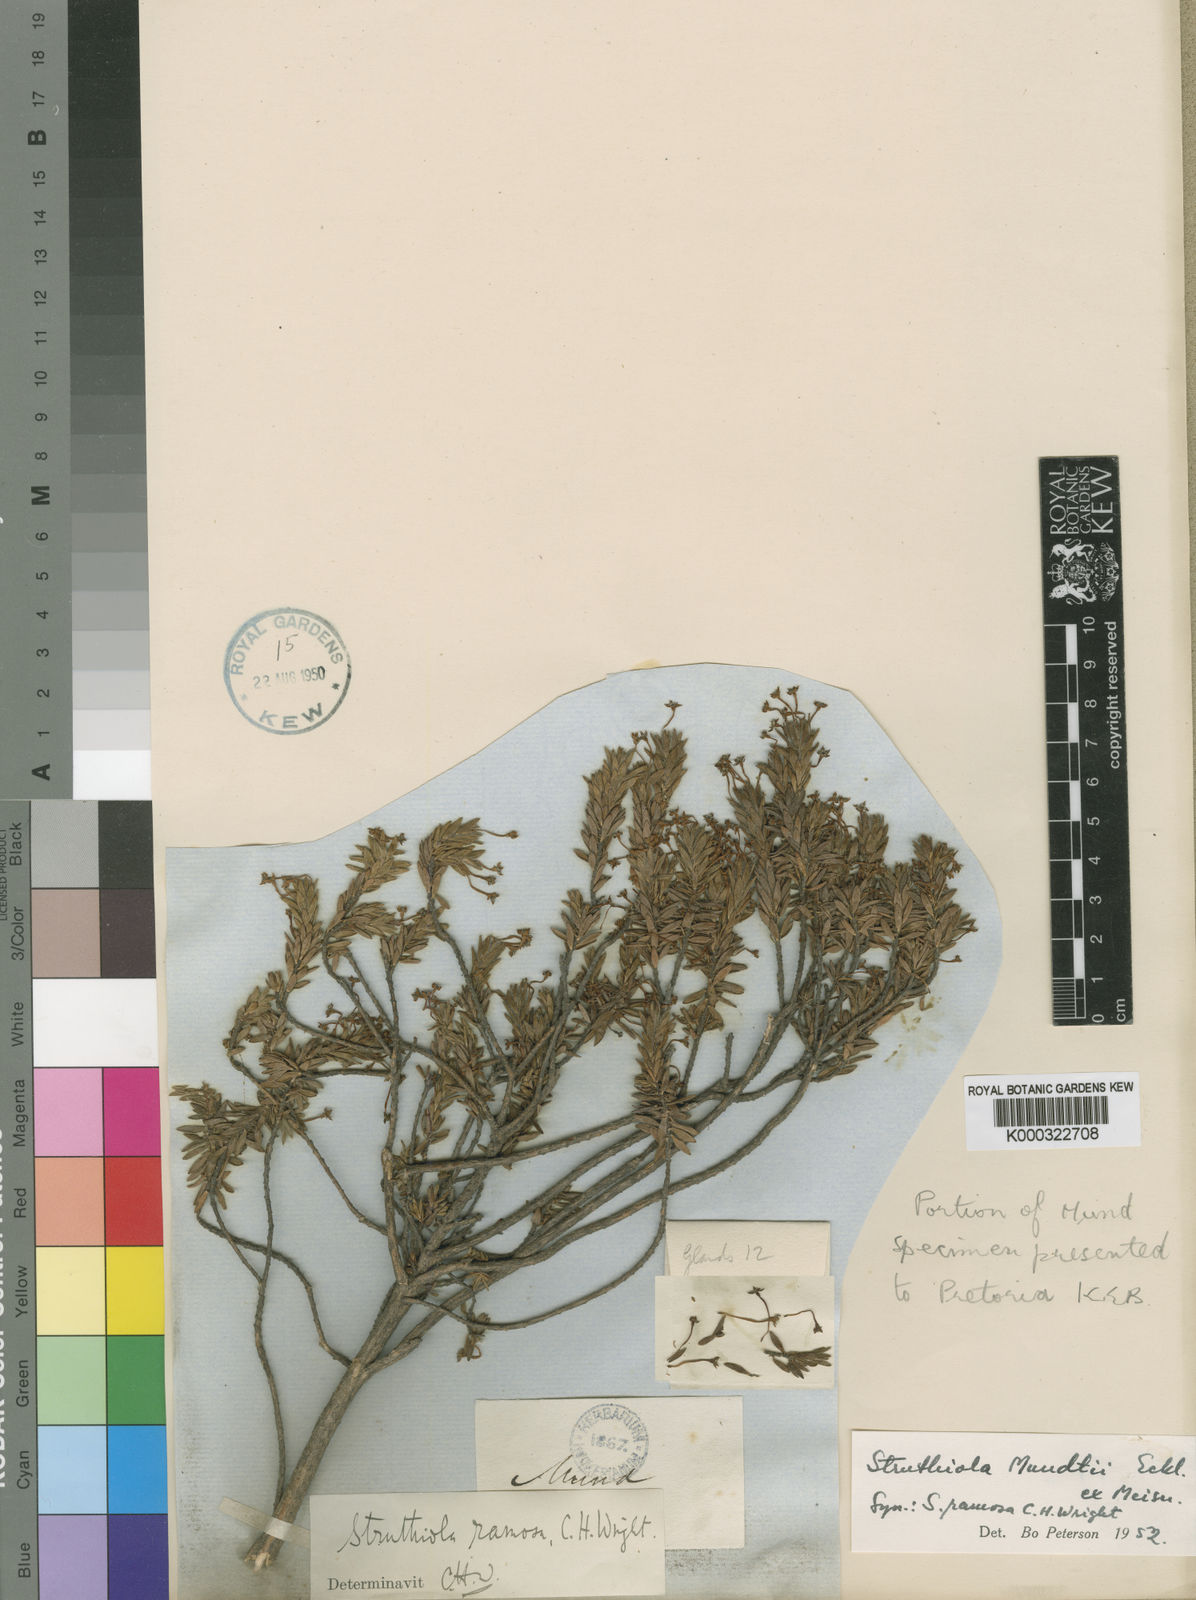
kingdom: Plantae
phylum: Tracheophyta
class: Magnoliopsida
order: Malvales
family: Thymelaeaceae
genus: Struthiola
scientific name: Struthiola mundtii
